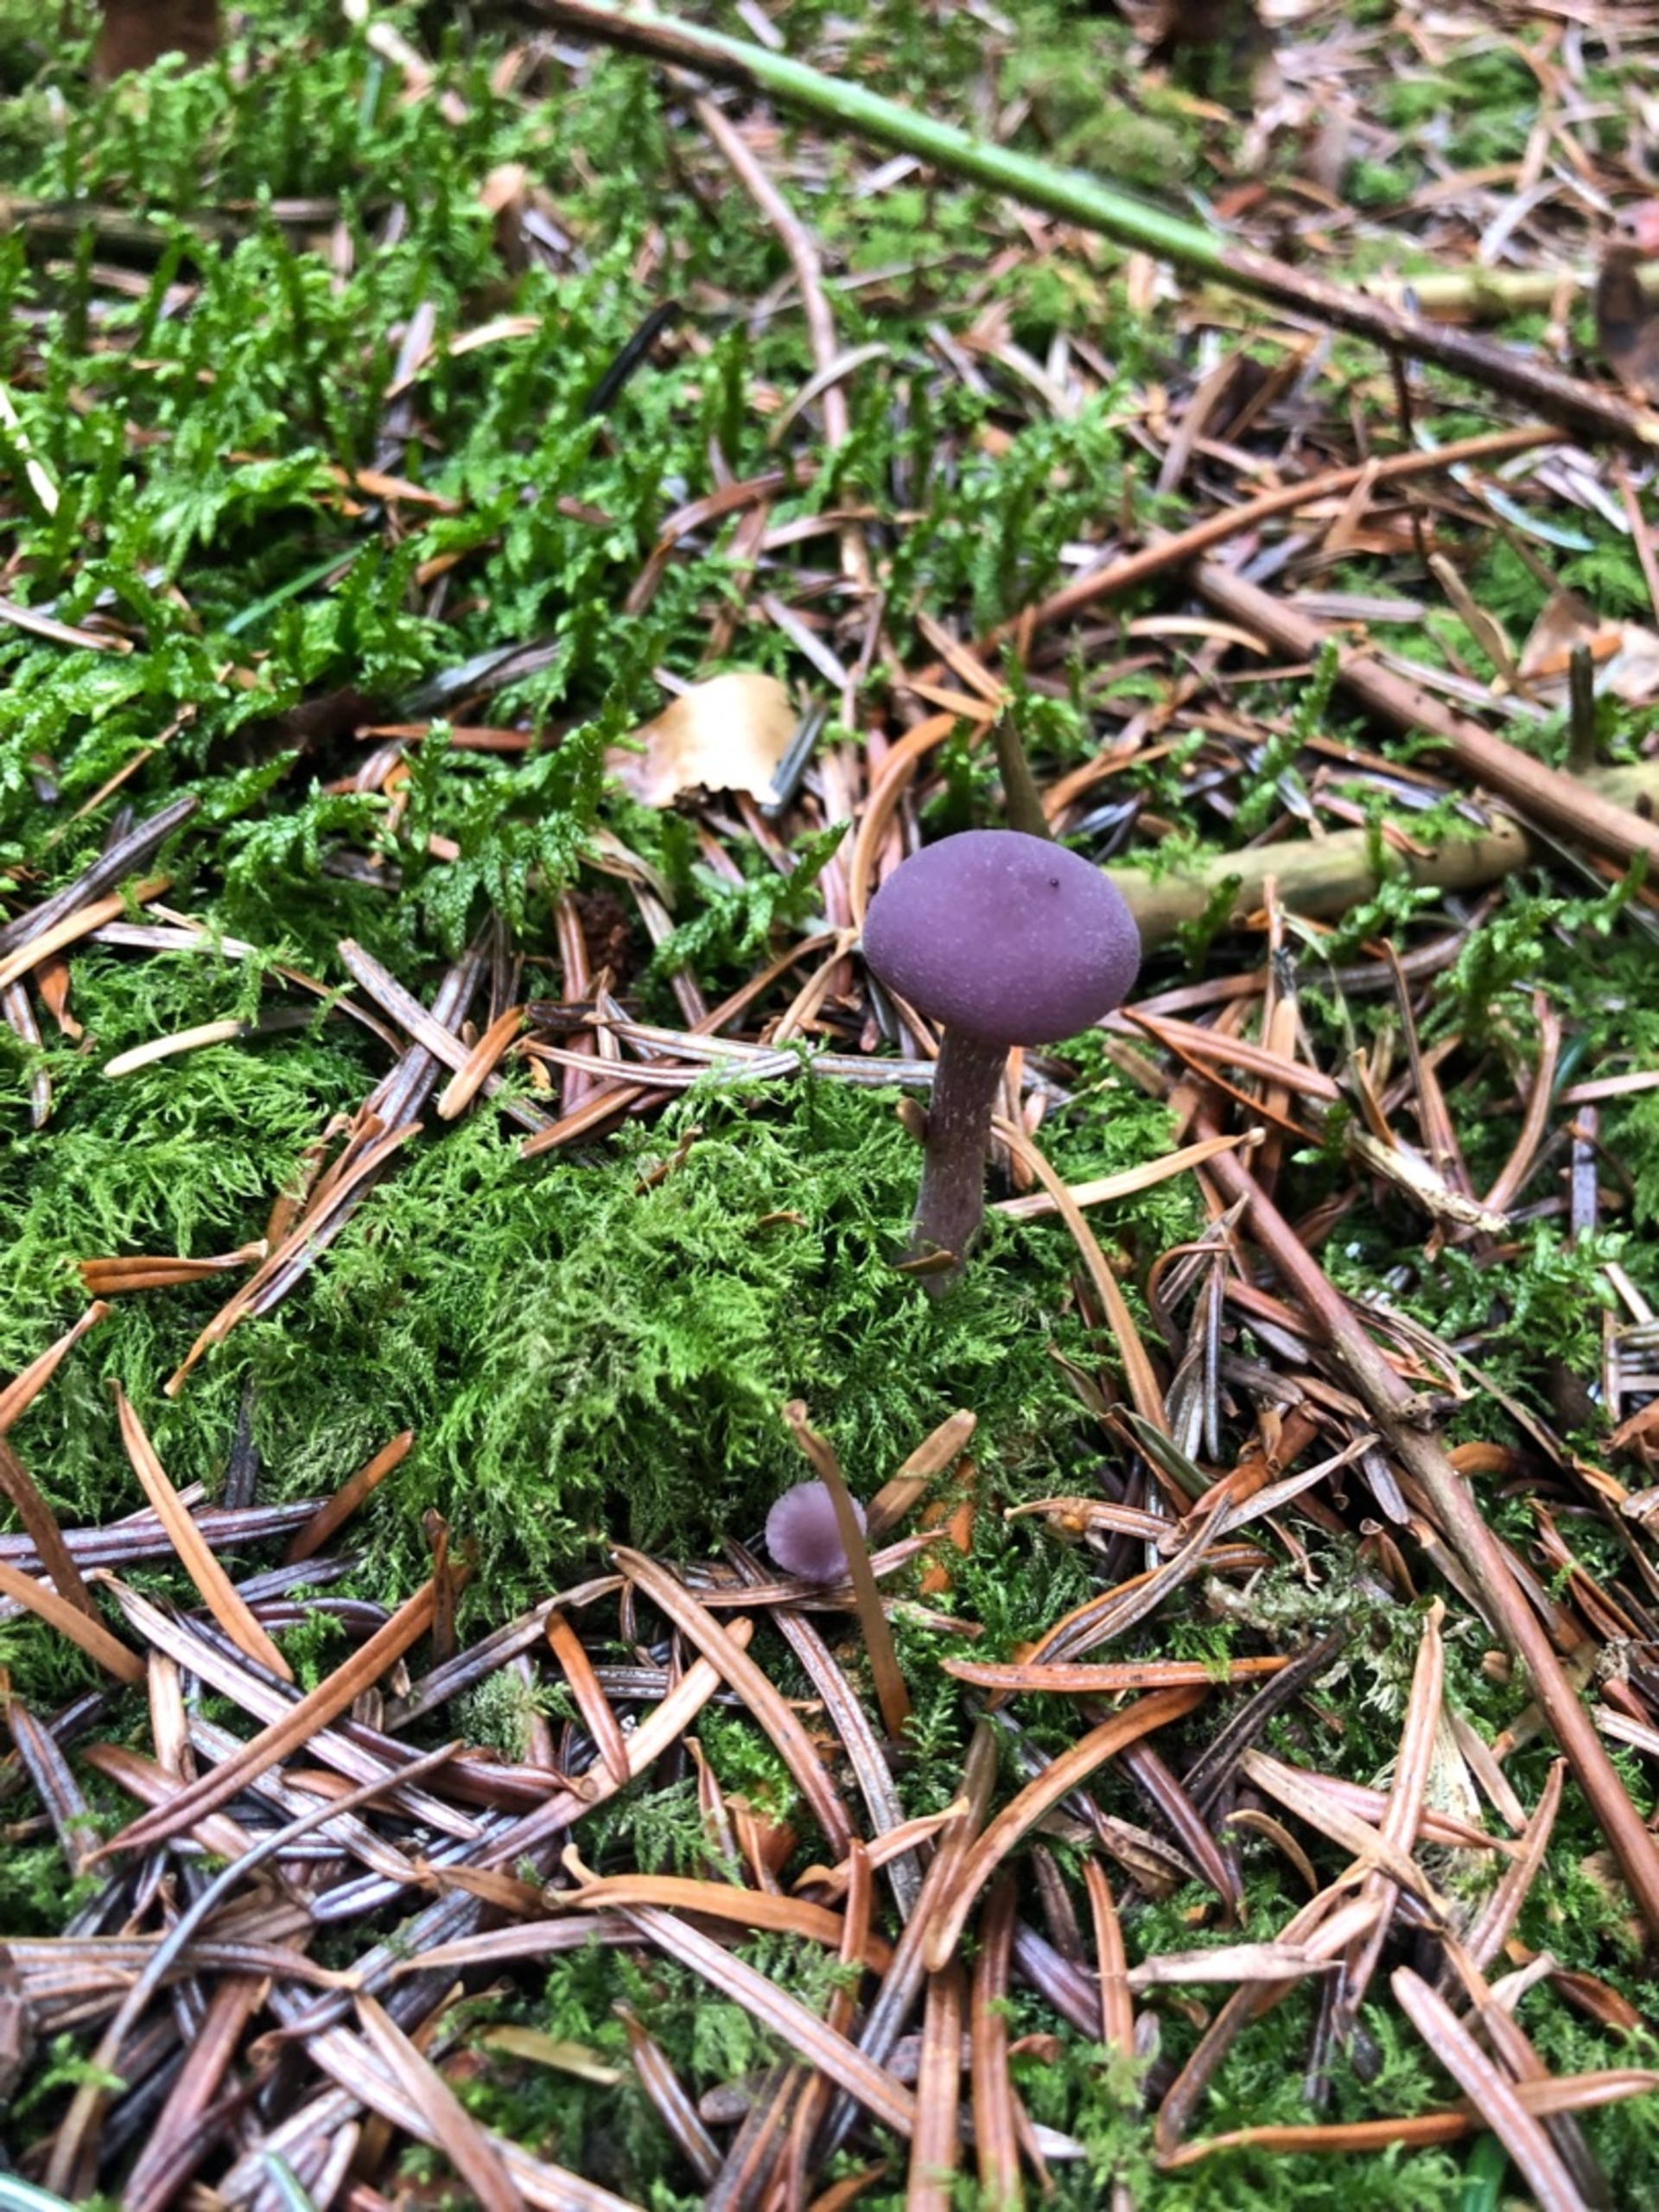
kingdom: Fungi
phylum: Basidiomycota
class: Agaricomycetes
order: Agaricales
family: Hydnangiaceae
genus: Laccaria
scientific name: Laccaria amethystina
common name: Violet ametysthat
